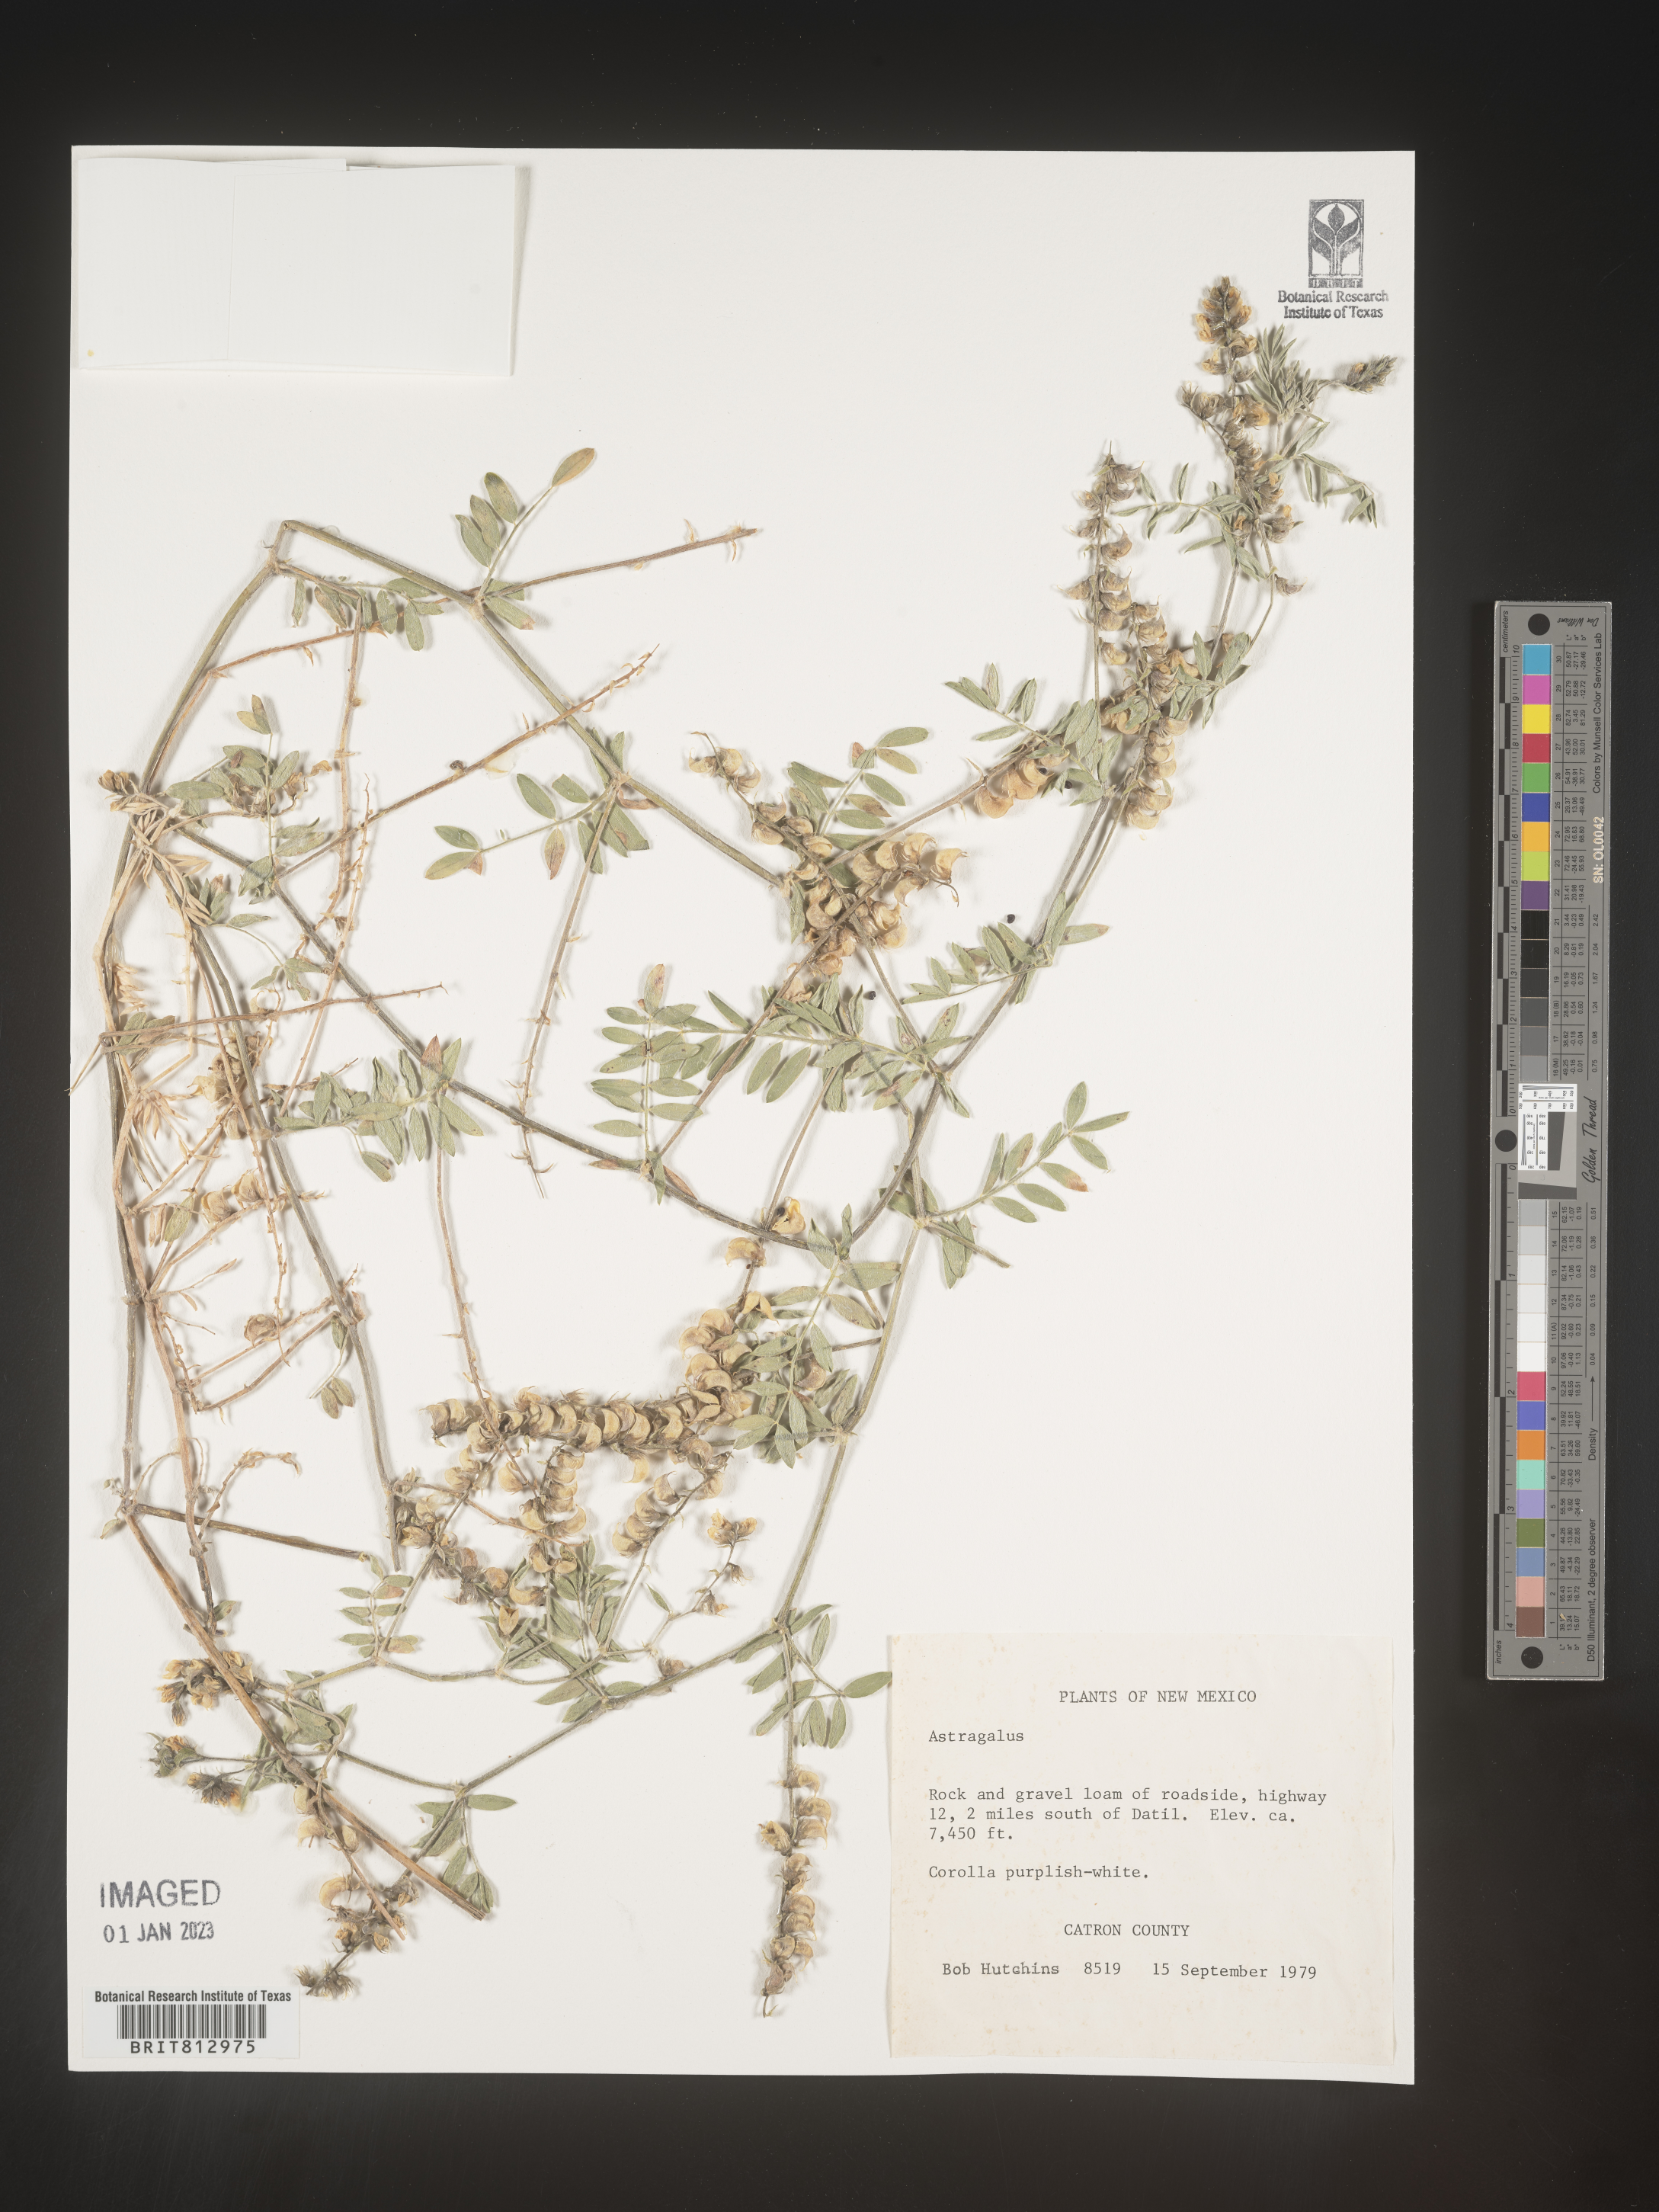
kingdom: Plantae
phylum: Tracheophyta
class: Magnoliopsida
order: Fabales
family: Fabaceae
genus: Astragalus
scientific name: Astragalus
